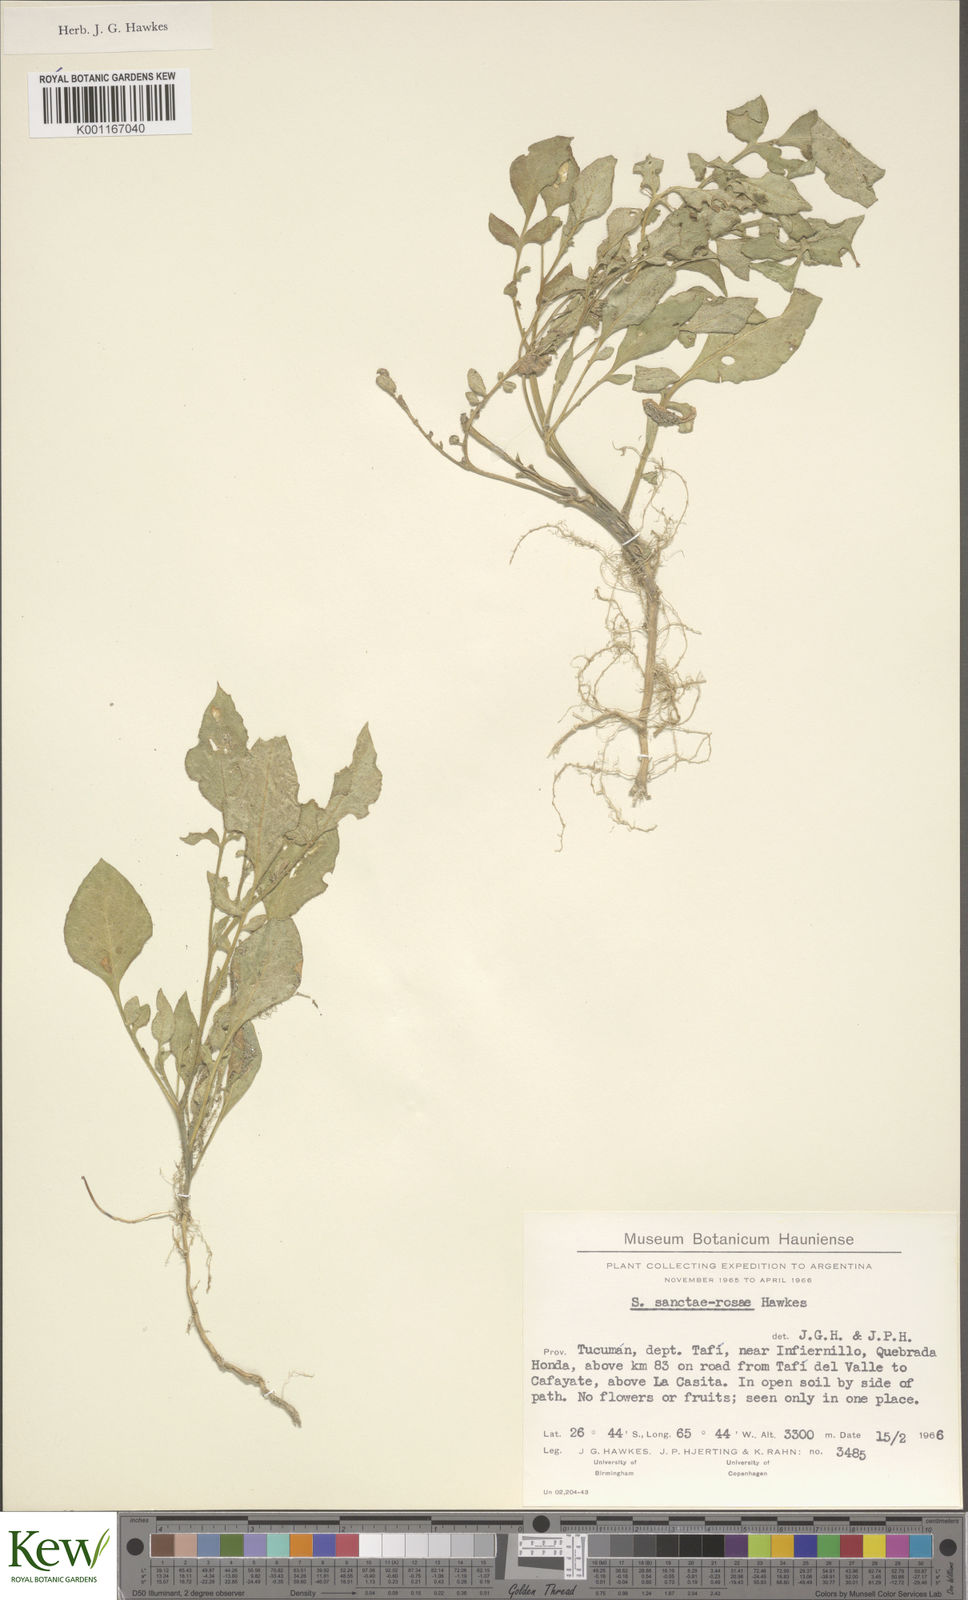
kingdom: Plantae
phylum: Tracheophyta
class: Magnoliopsida
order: Solanales
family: Solanaceae
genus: Solanum
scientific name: Solanum boliviense
